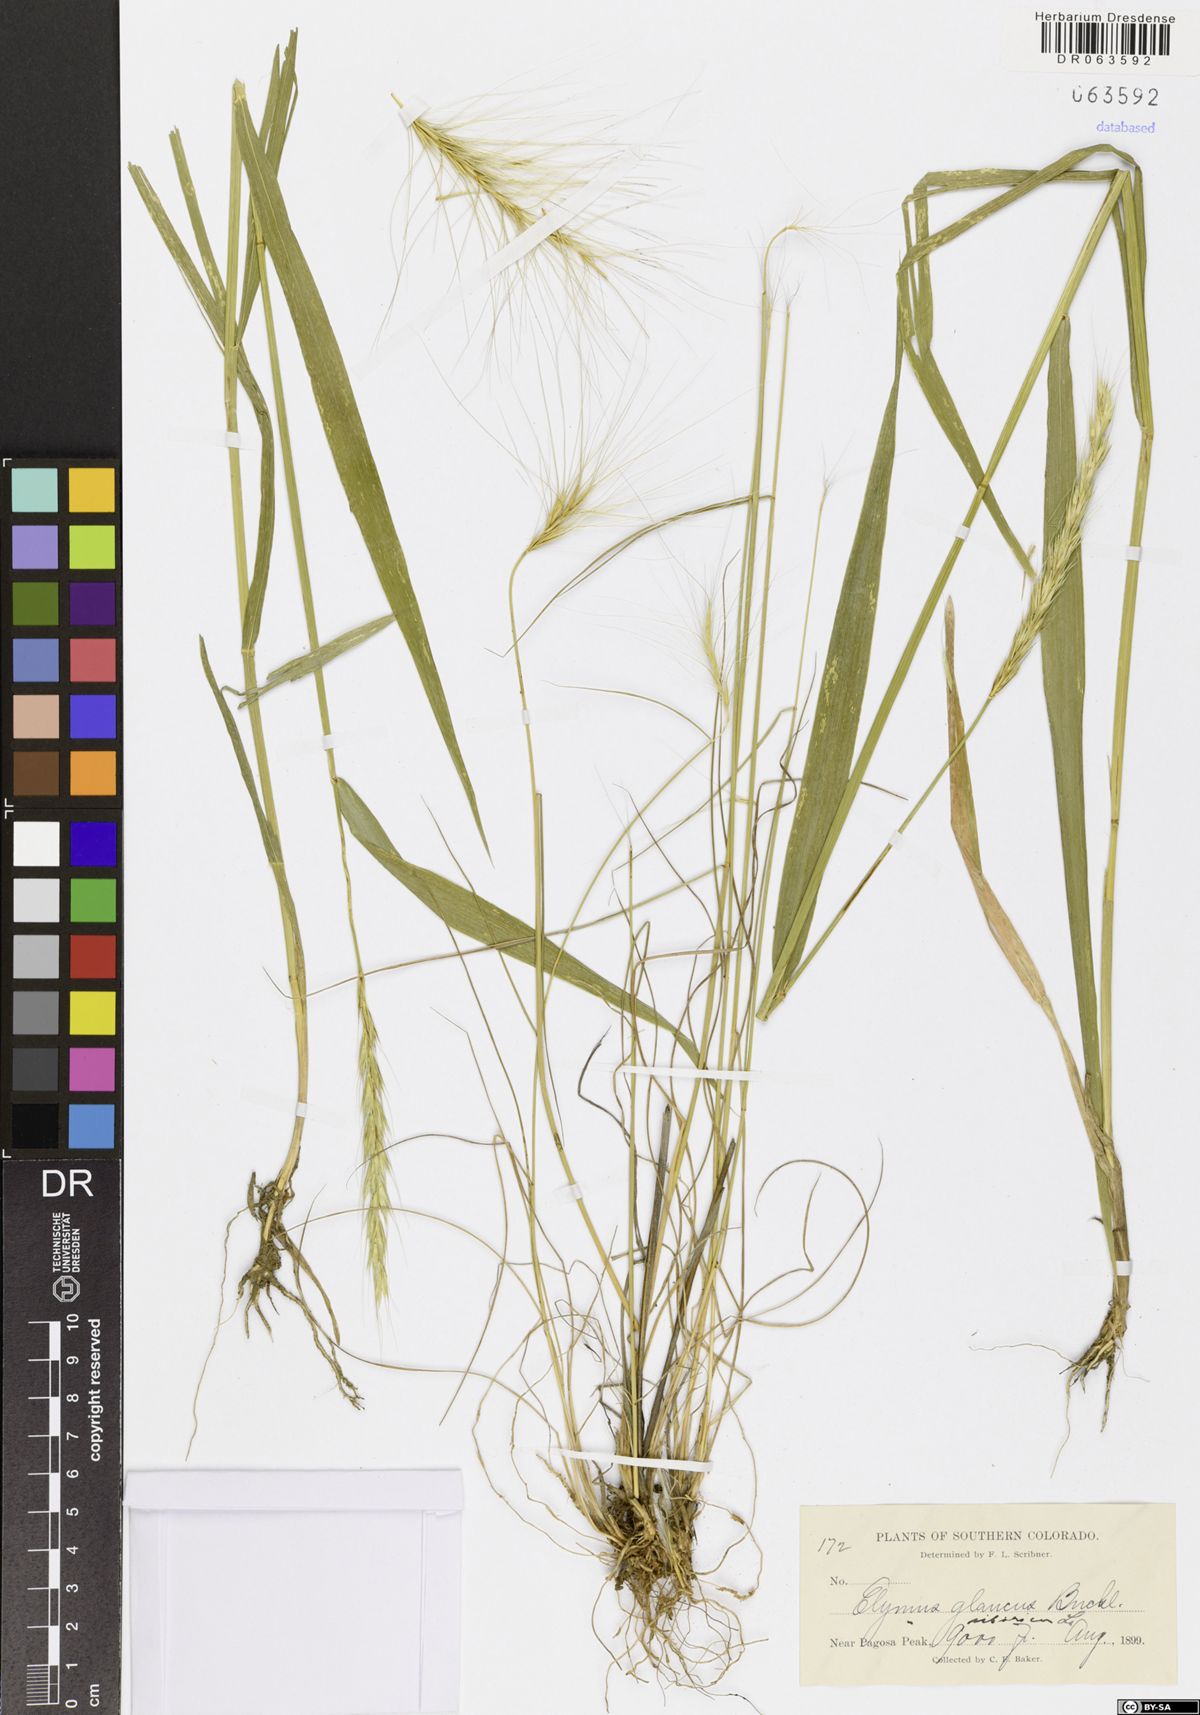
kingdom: Plantae
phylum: Tracheophyta
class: Liliopsida
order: Poales
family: Poaceae
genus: Elymus
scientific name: Elymus glaucus
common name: Blue wild rye
